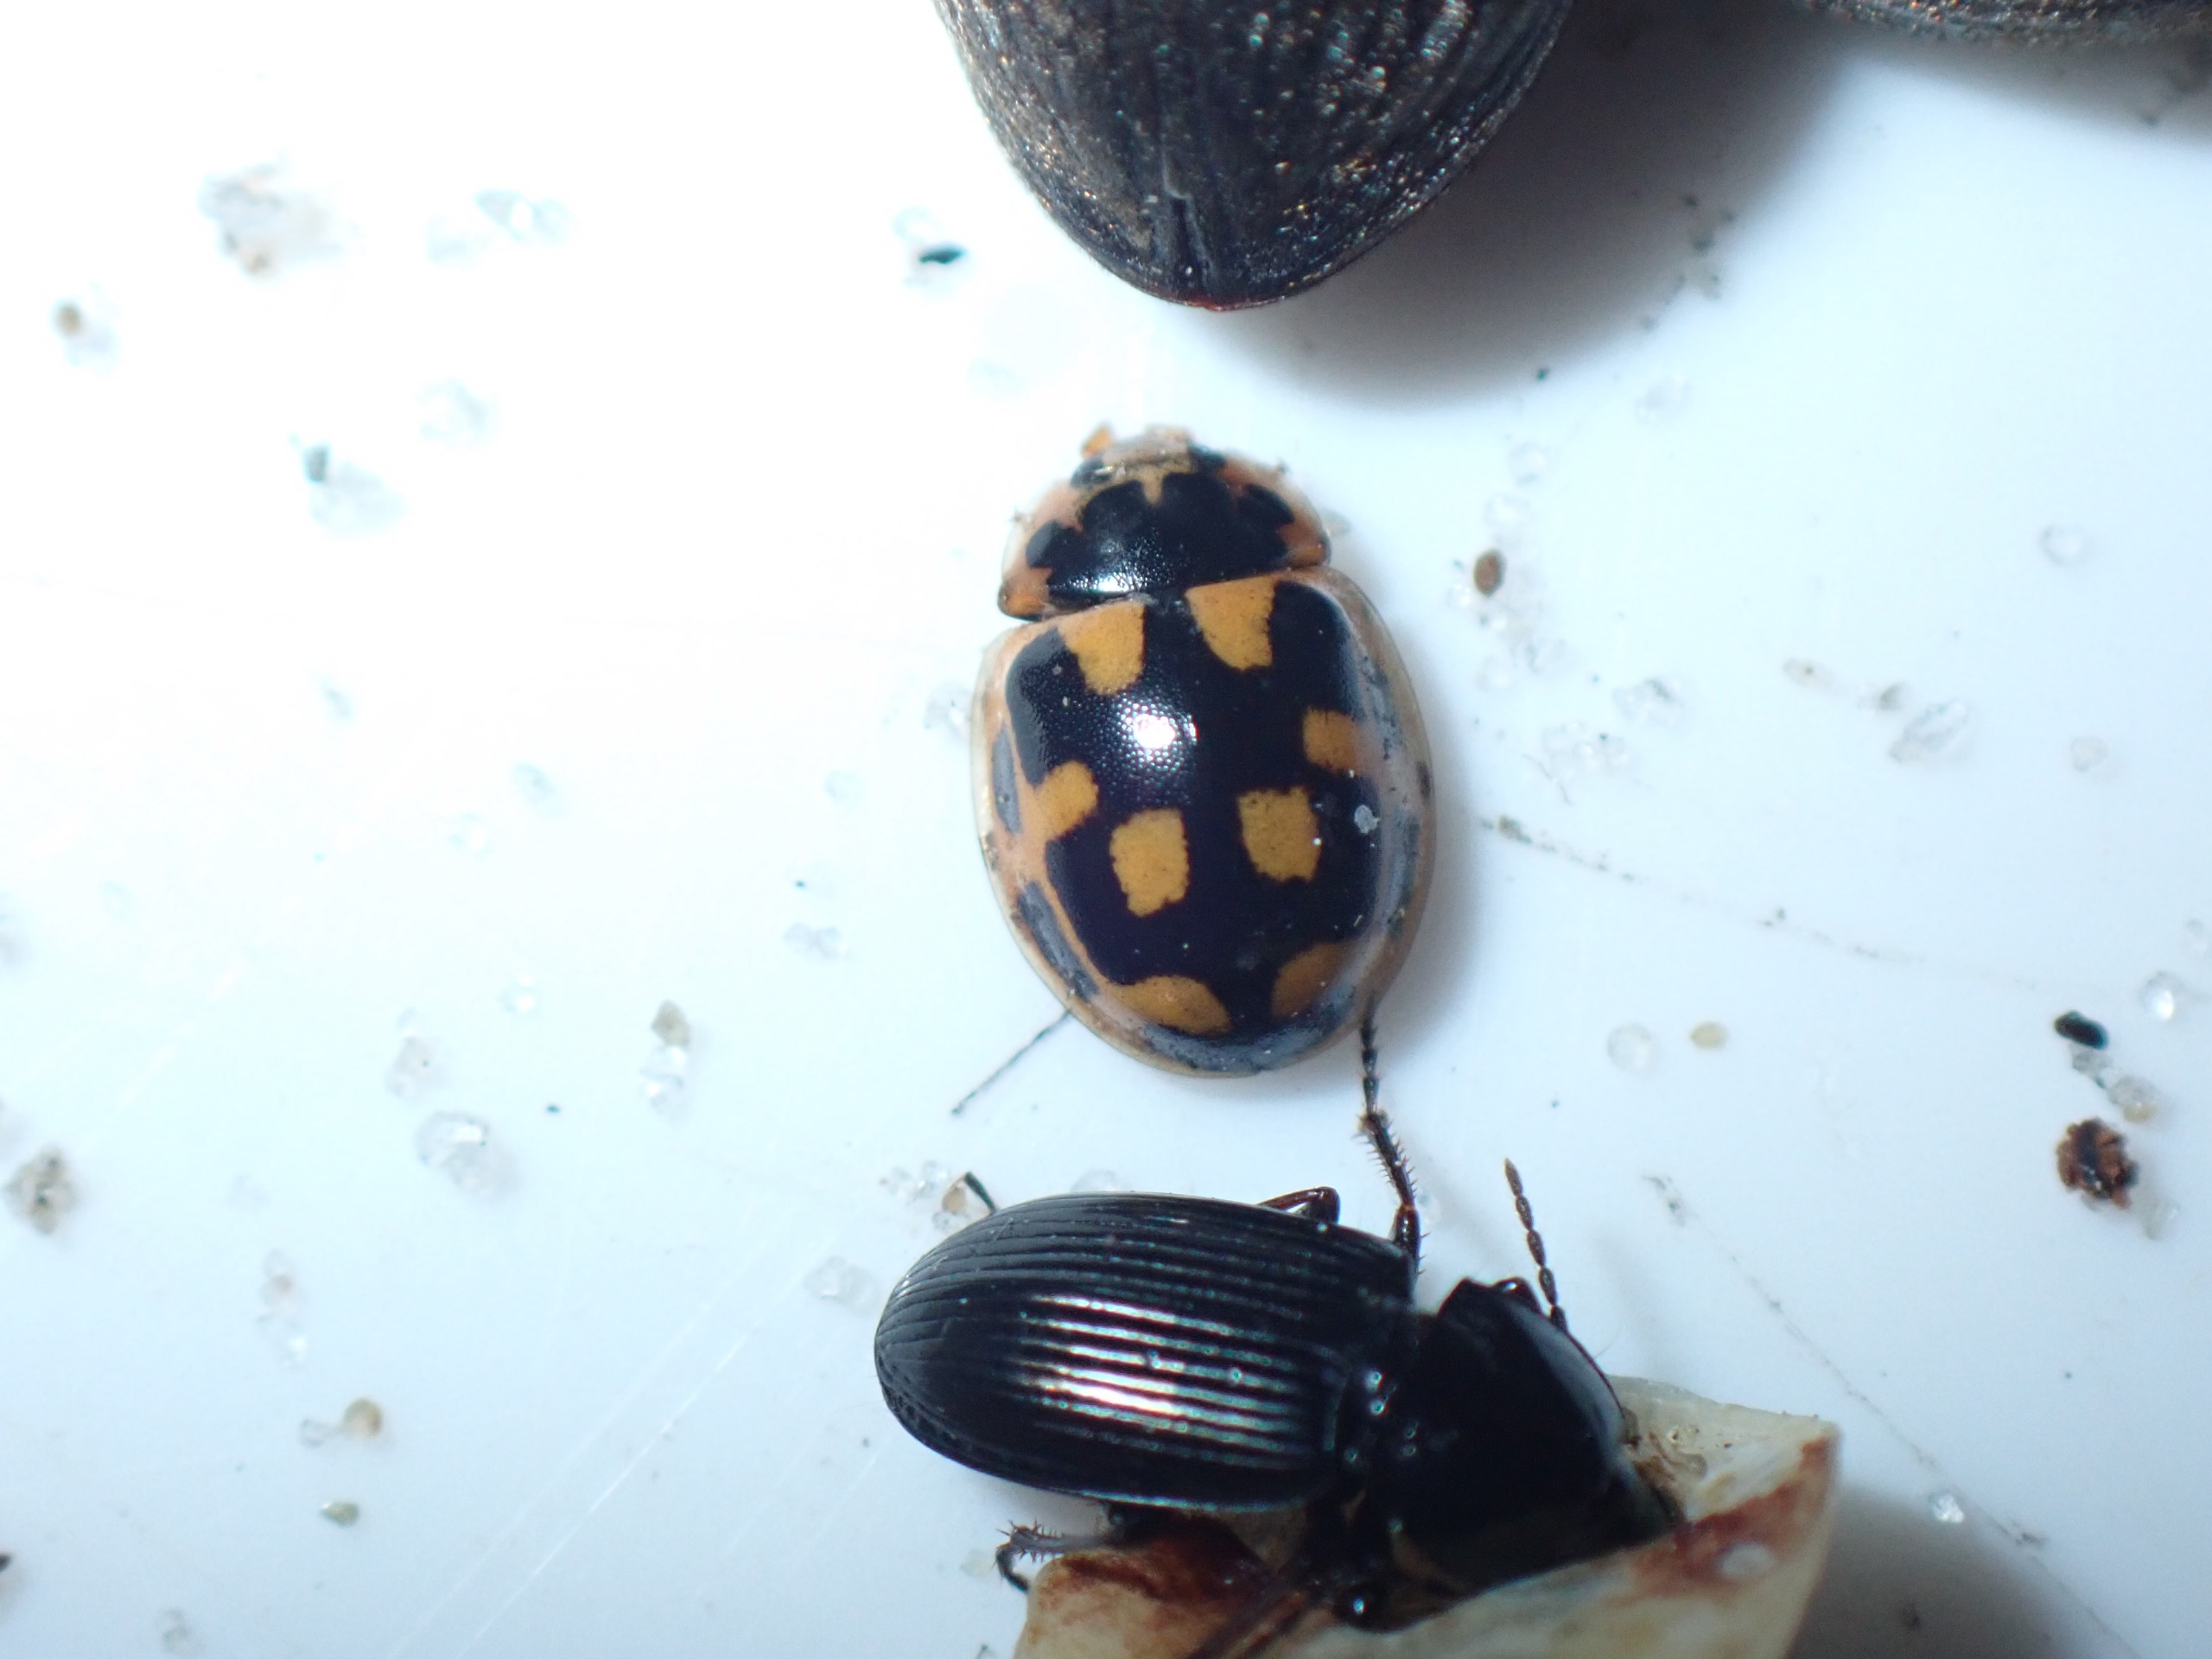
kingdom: Animalia
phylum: Arthropoda
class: Insecta
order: Coleoptera
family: Coccinellidae
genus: Propylaea
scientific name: Propylaea quatuordecimpunctata
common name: Skakbræt
